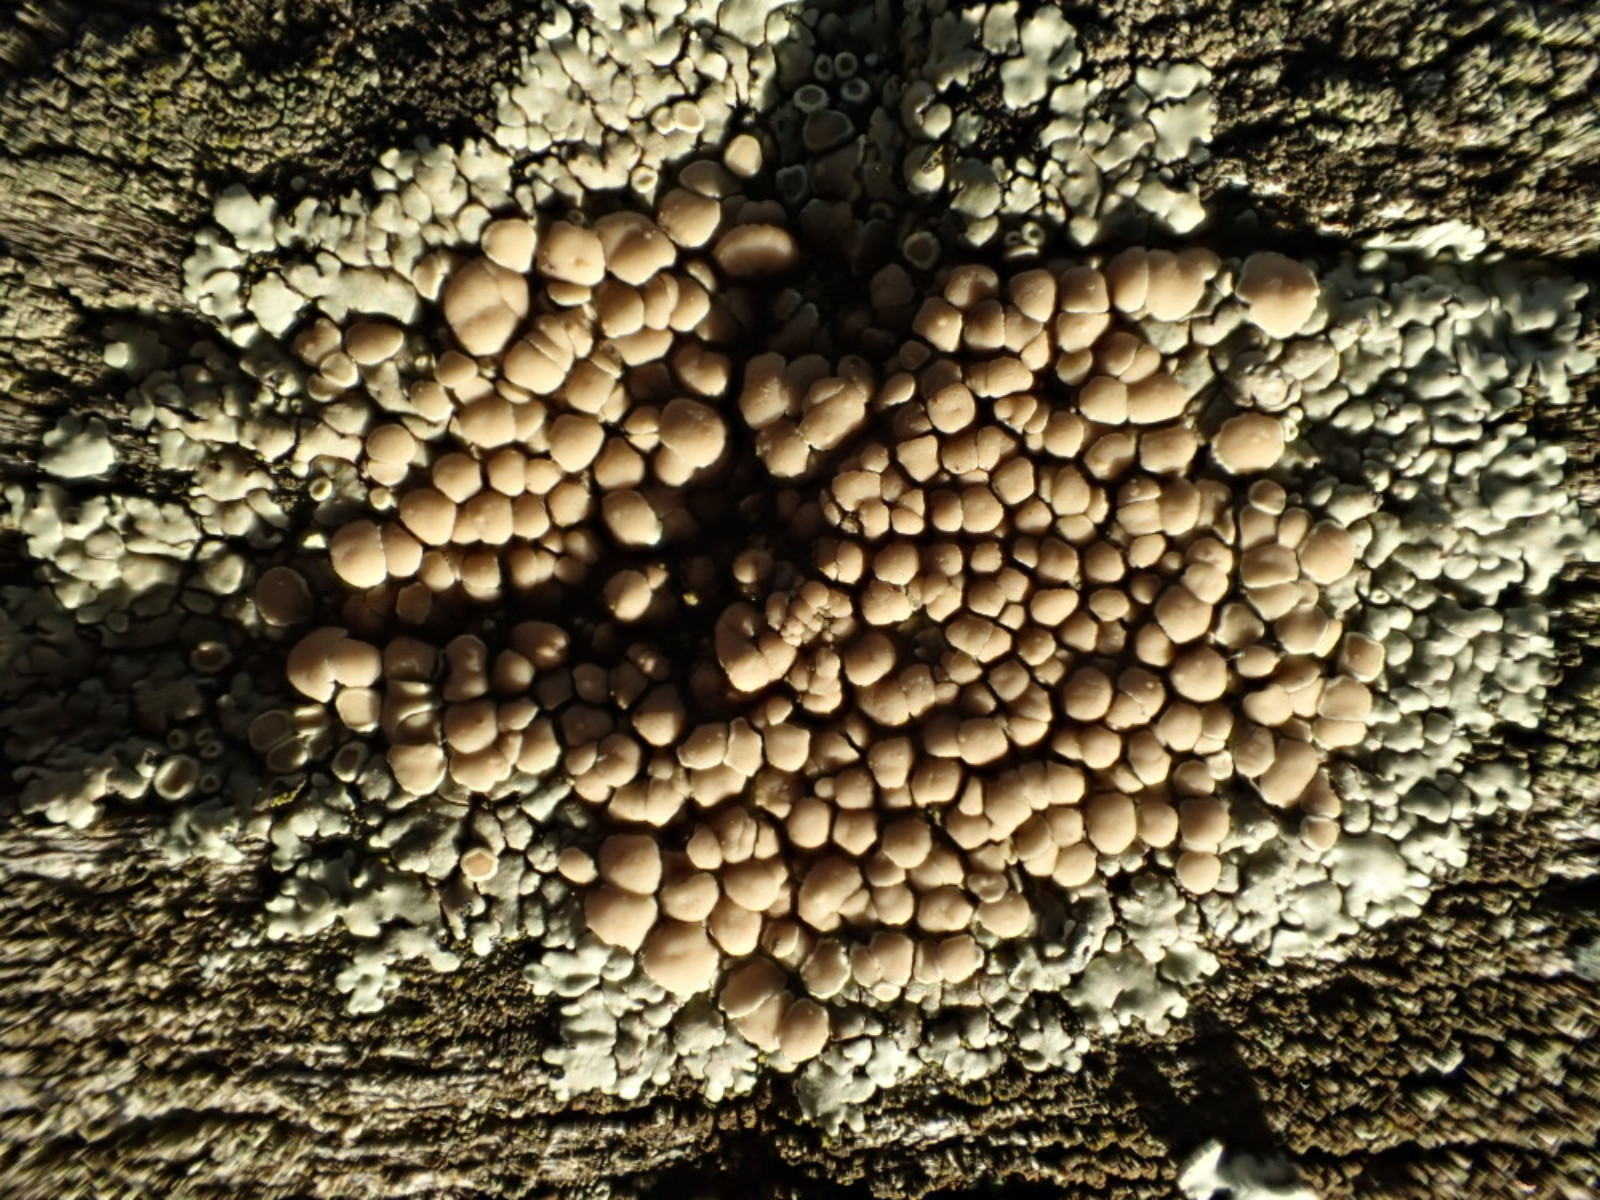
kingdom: Fungi
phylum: Ascomycota
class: Lecanoromycetes
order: Lecanorales
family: Lecanoraceae
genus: Protoparmeliopsis
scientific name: Protoparmeliopsis muralis
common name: randfliget kantskivelav
